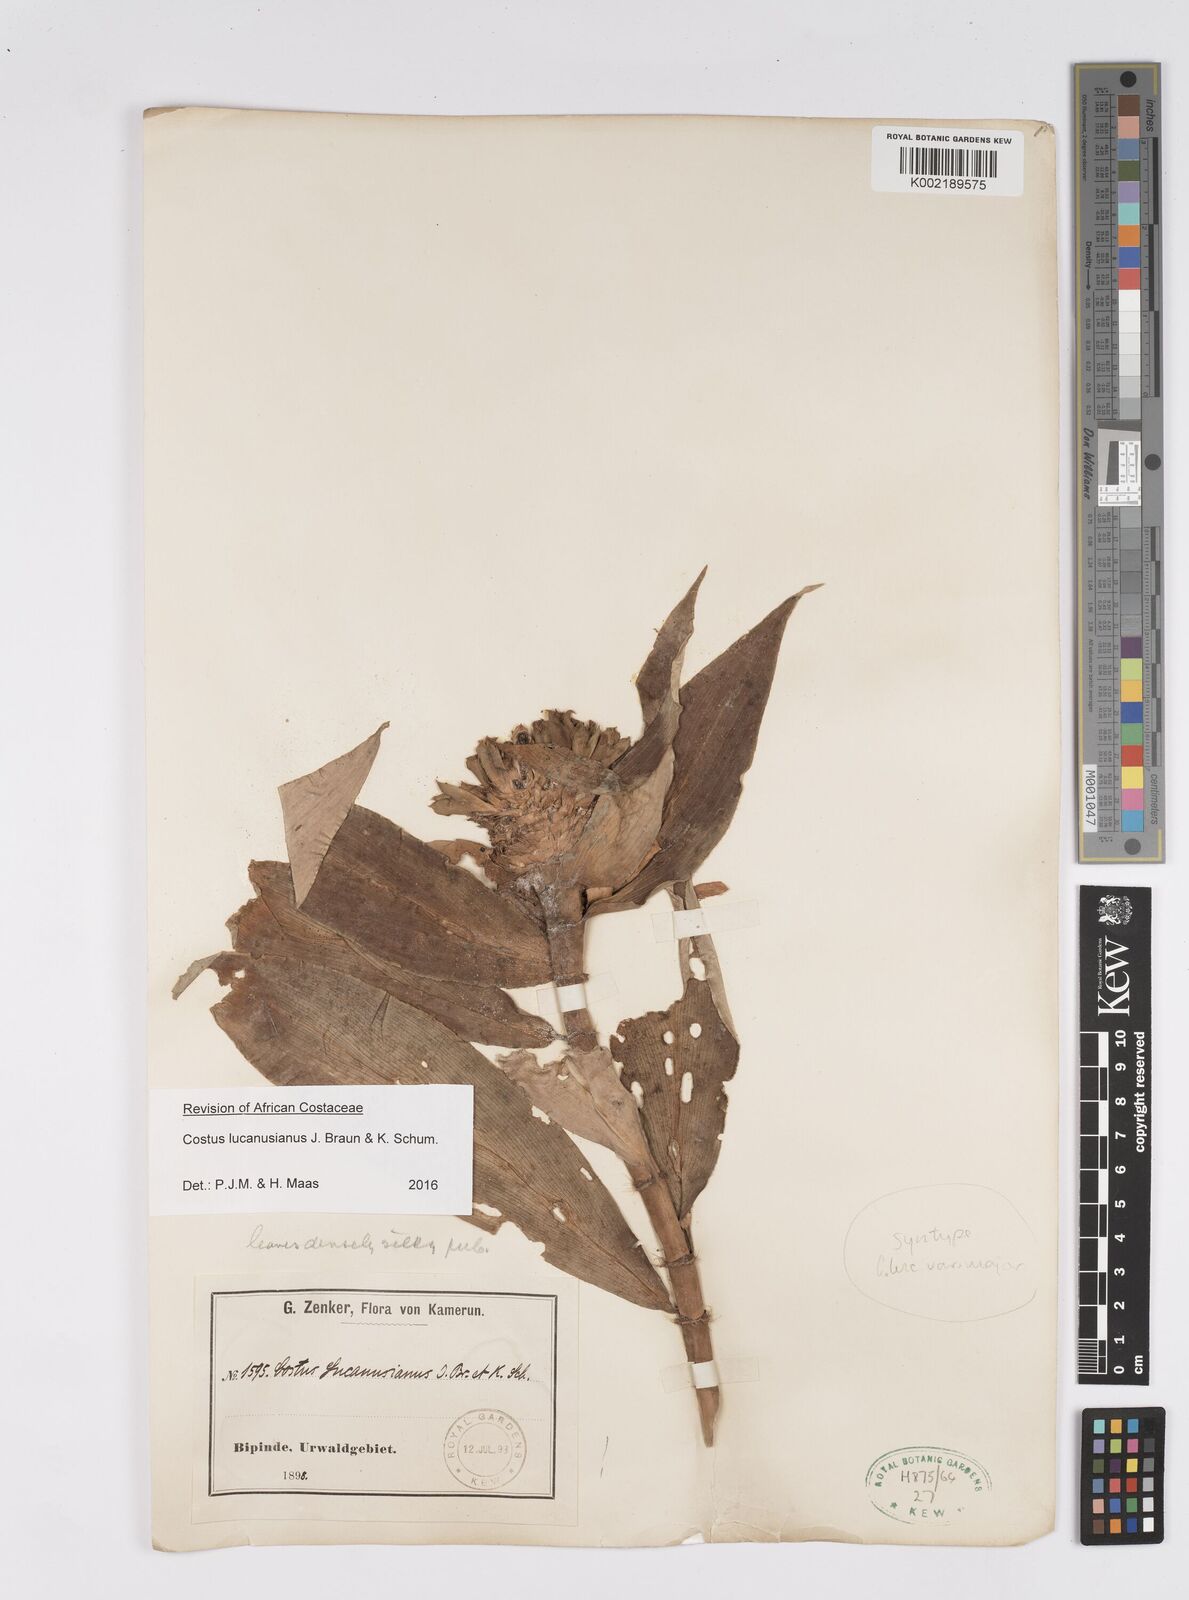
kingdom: Plantae
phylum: Tracheophyta
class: Liliopsida
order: Zingiberales
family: Costaceae
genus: Costus
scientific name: Costus lucanusianus
